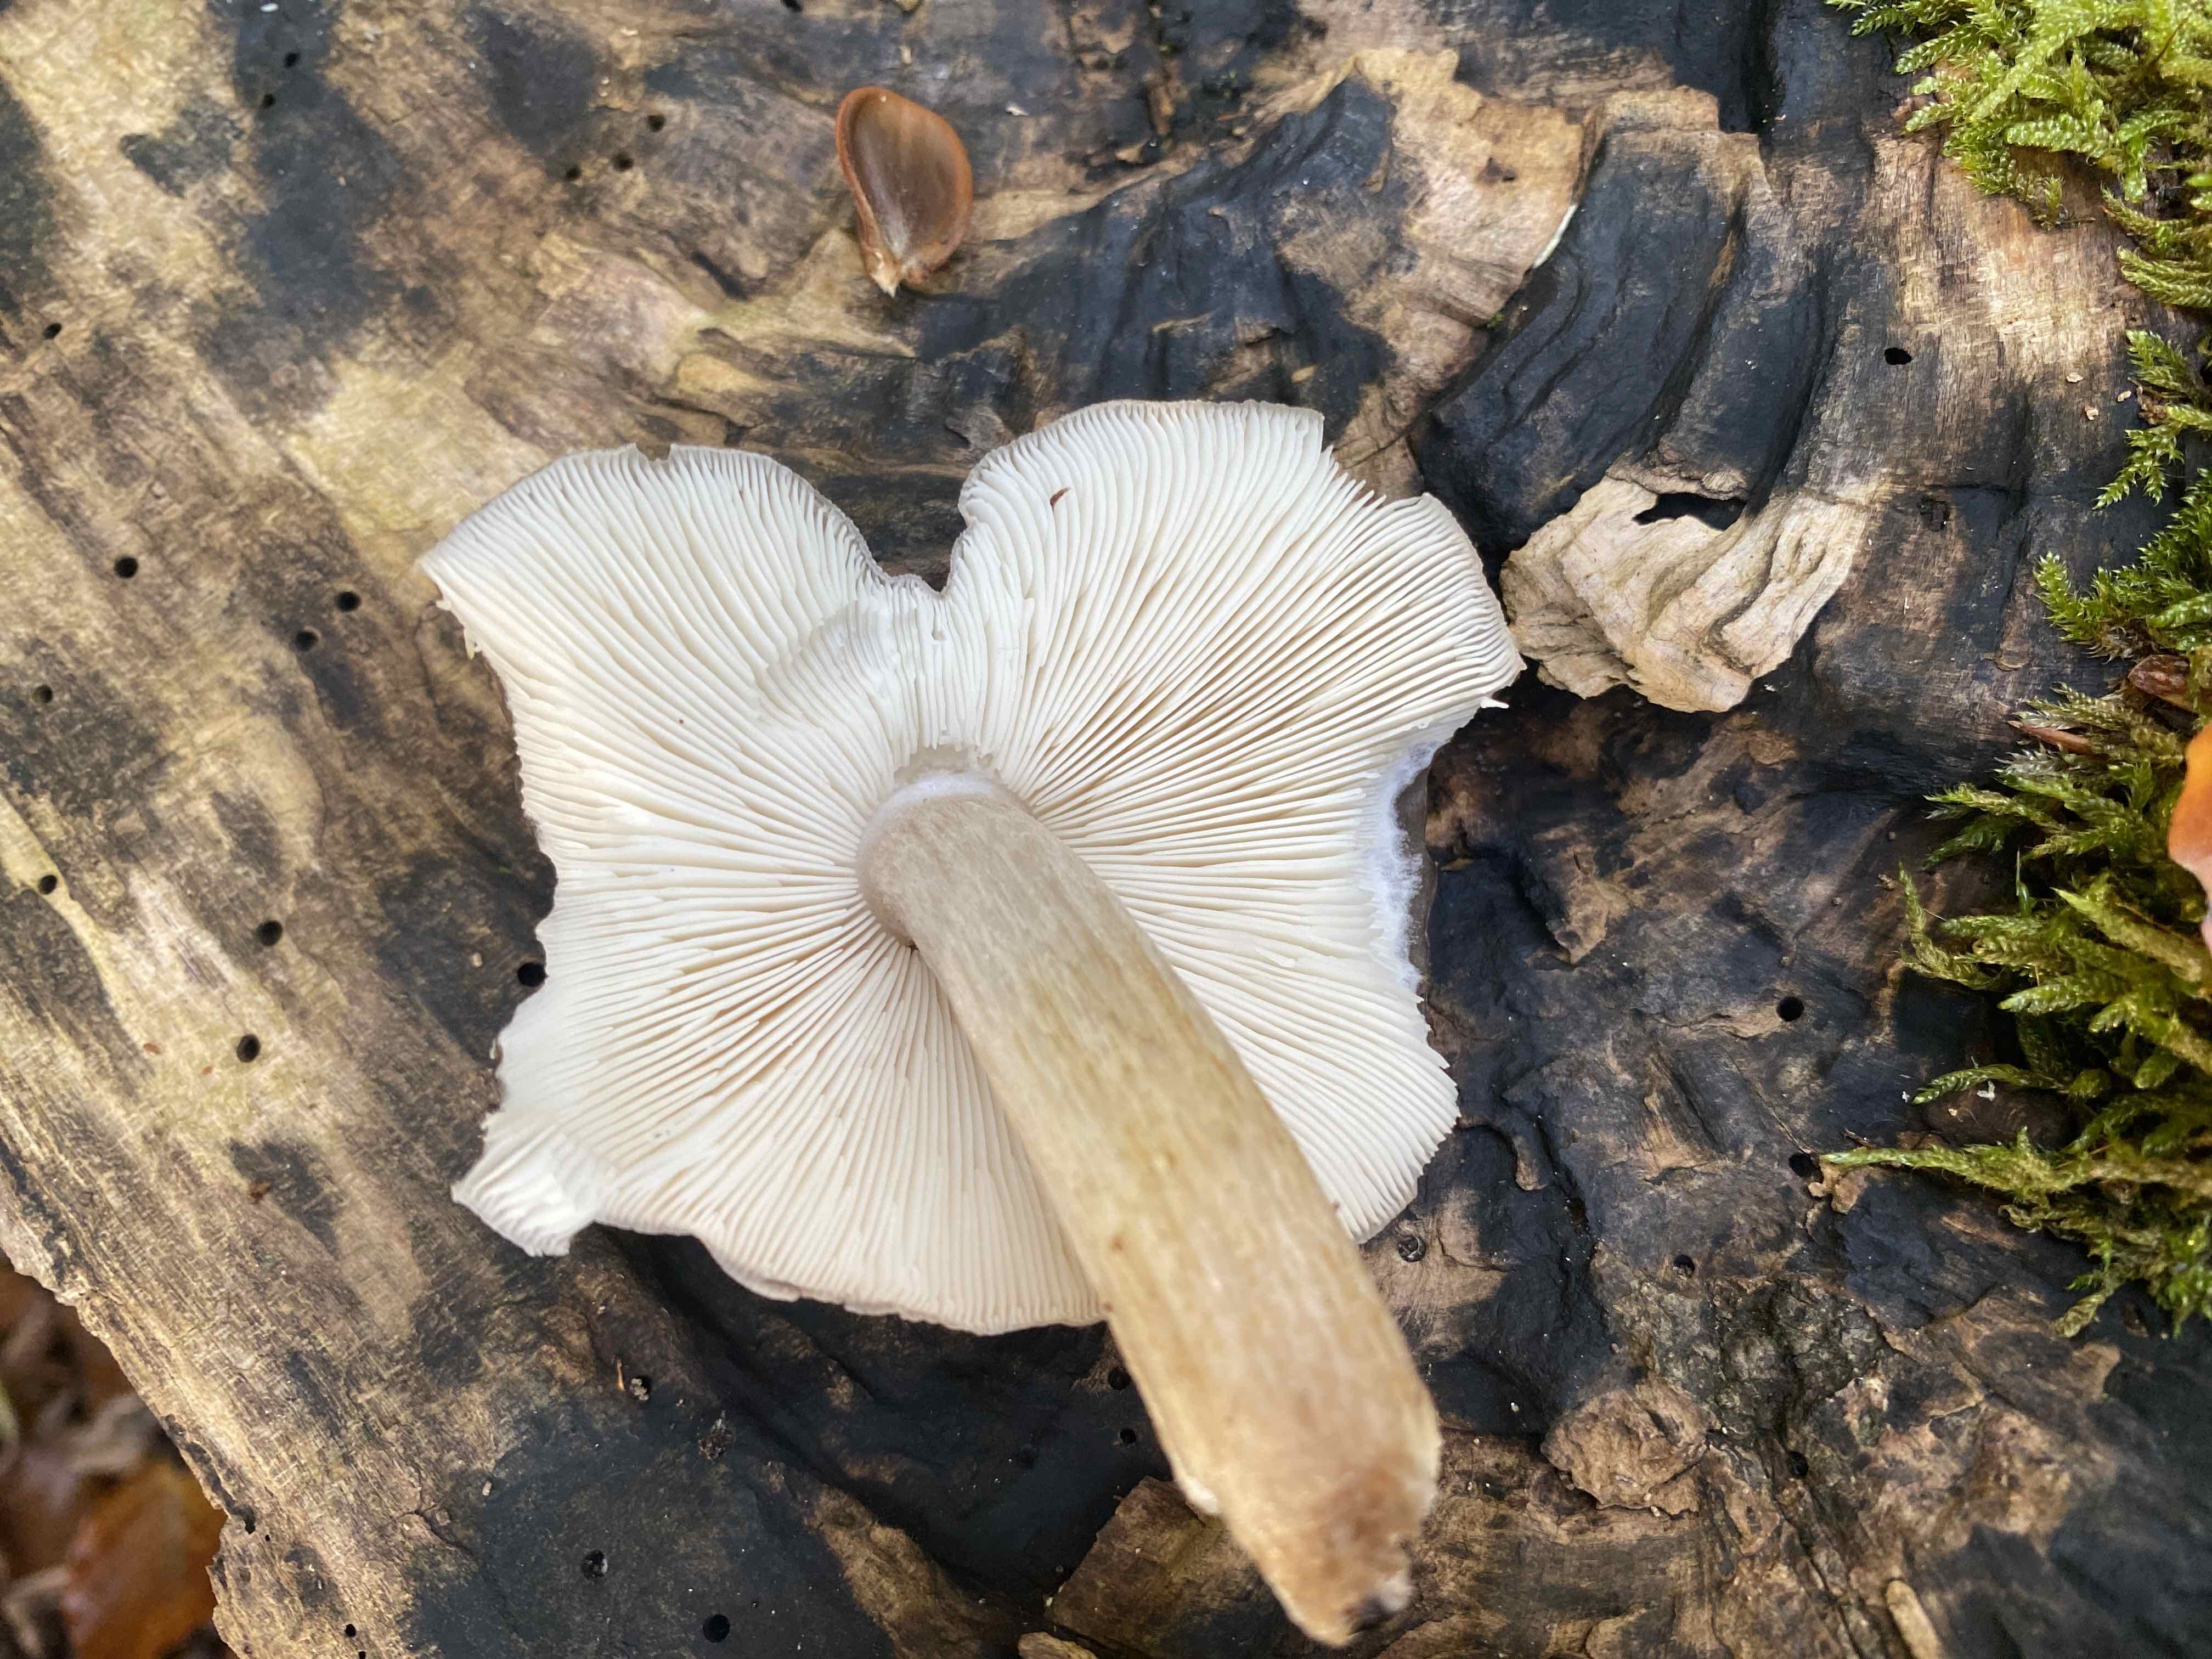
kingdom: Fungi
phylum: Basidiomycota
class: Agaricomycetes
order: Agaricales
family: Pluteaceae
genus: Pluteus
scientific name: Pluteus cervinus
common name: sodfarvet skærmhat
